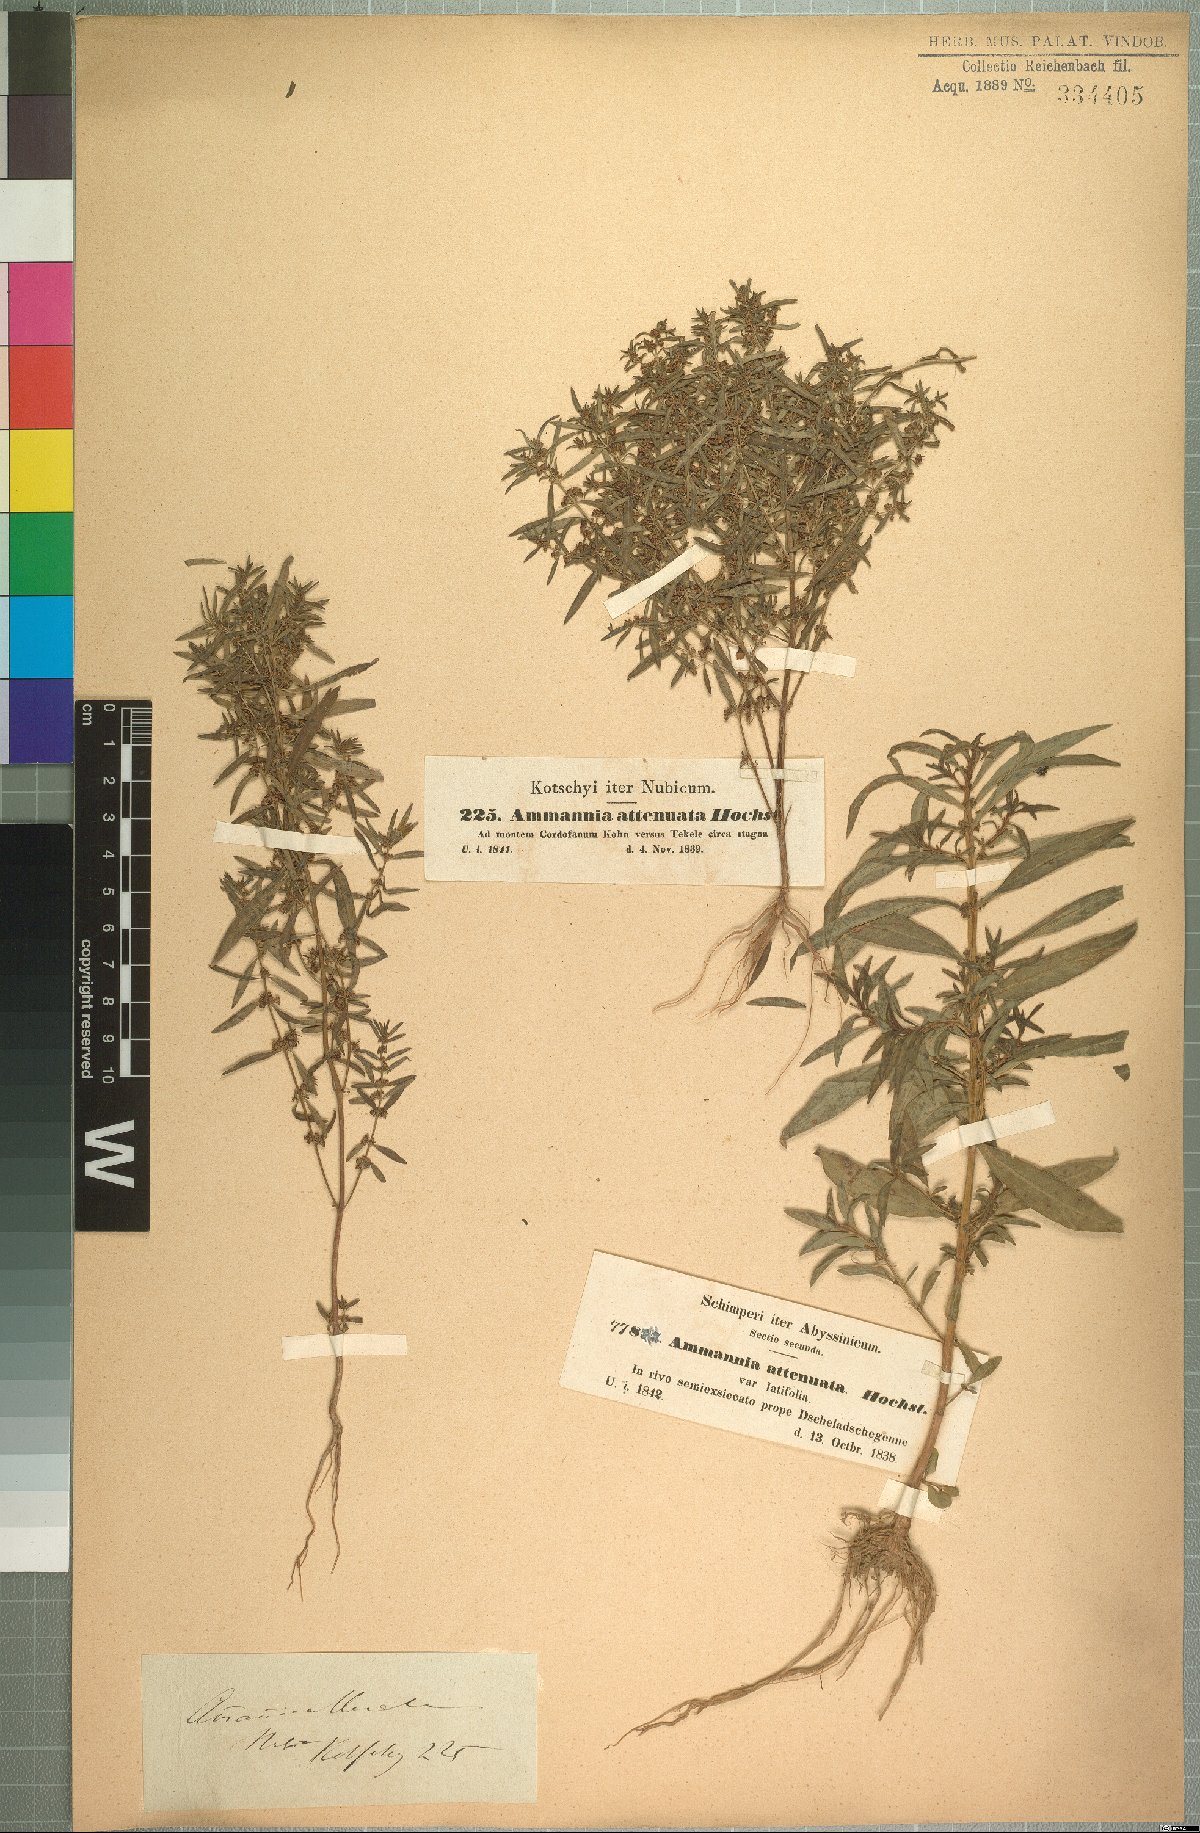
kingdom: Plantae
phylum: Tracheophyta
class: Magnoliopsida
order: Myrtales
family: Lythraceae
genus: Ammannia
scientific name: Ammannia baccifera
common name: Blistering ammania
